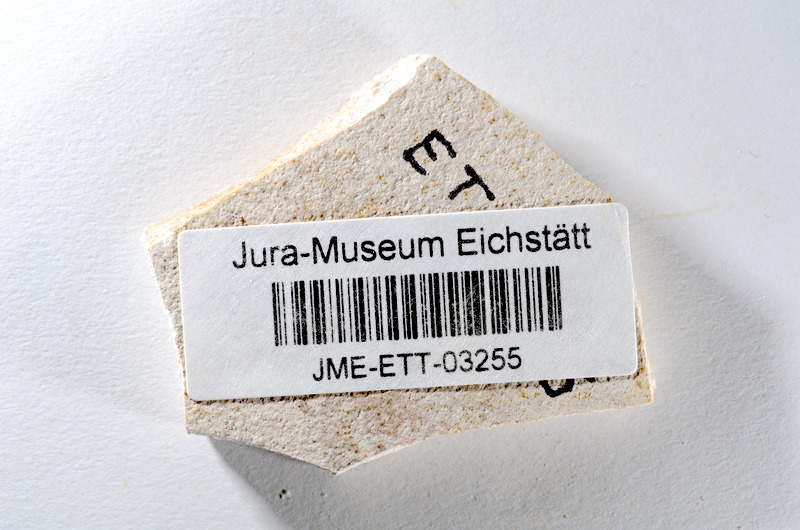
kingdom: Animalia
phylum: Chordata
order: Salmoniformes
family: Orthogonikleithridae
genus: Orthogonikleithrus
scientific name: Orthogonikleithrus hoelli
